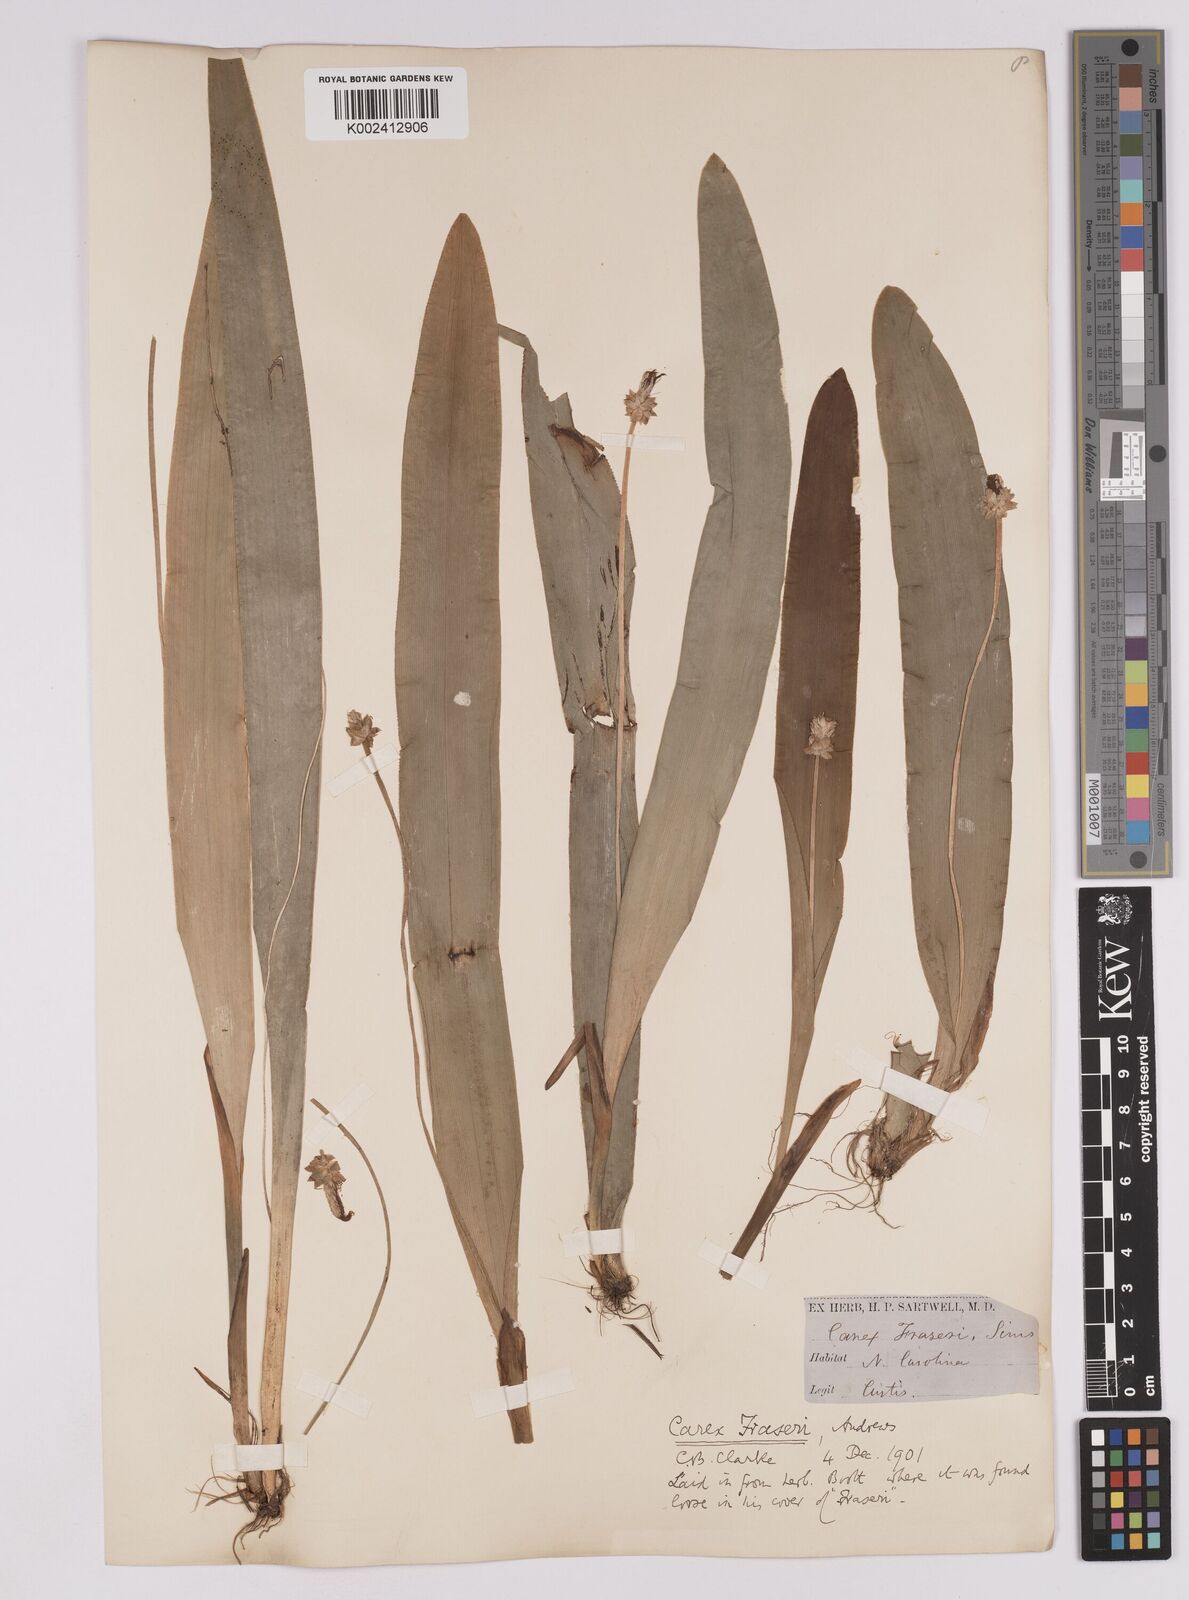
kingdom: Plantae
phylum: Tracheophyta
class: Liliopsida
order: Poales
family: Cyperaceae
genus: Carex
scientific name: Carex fraseriana
